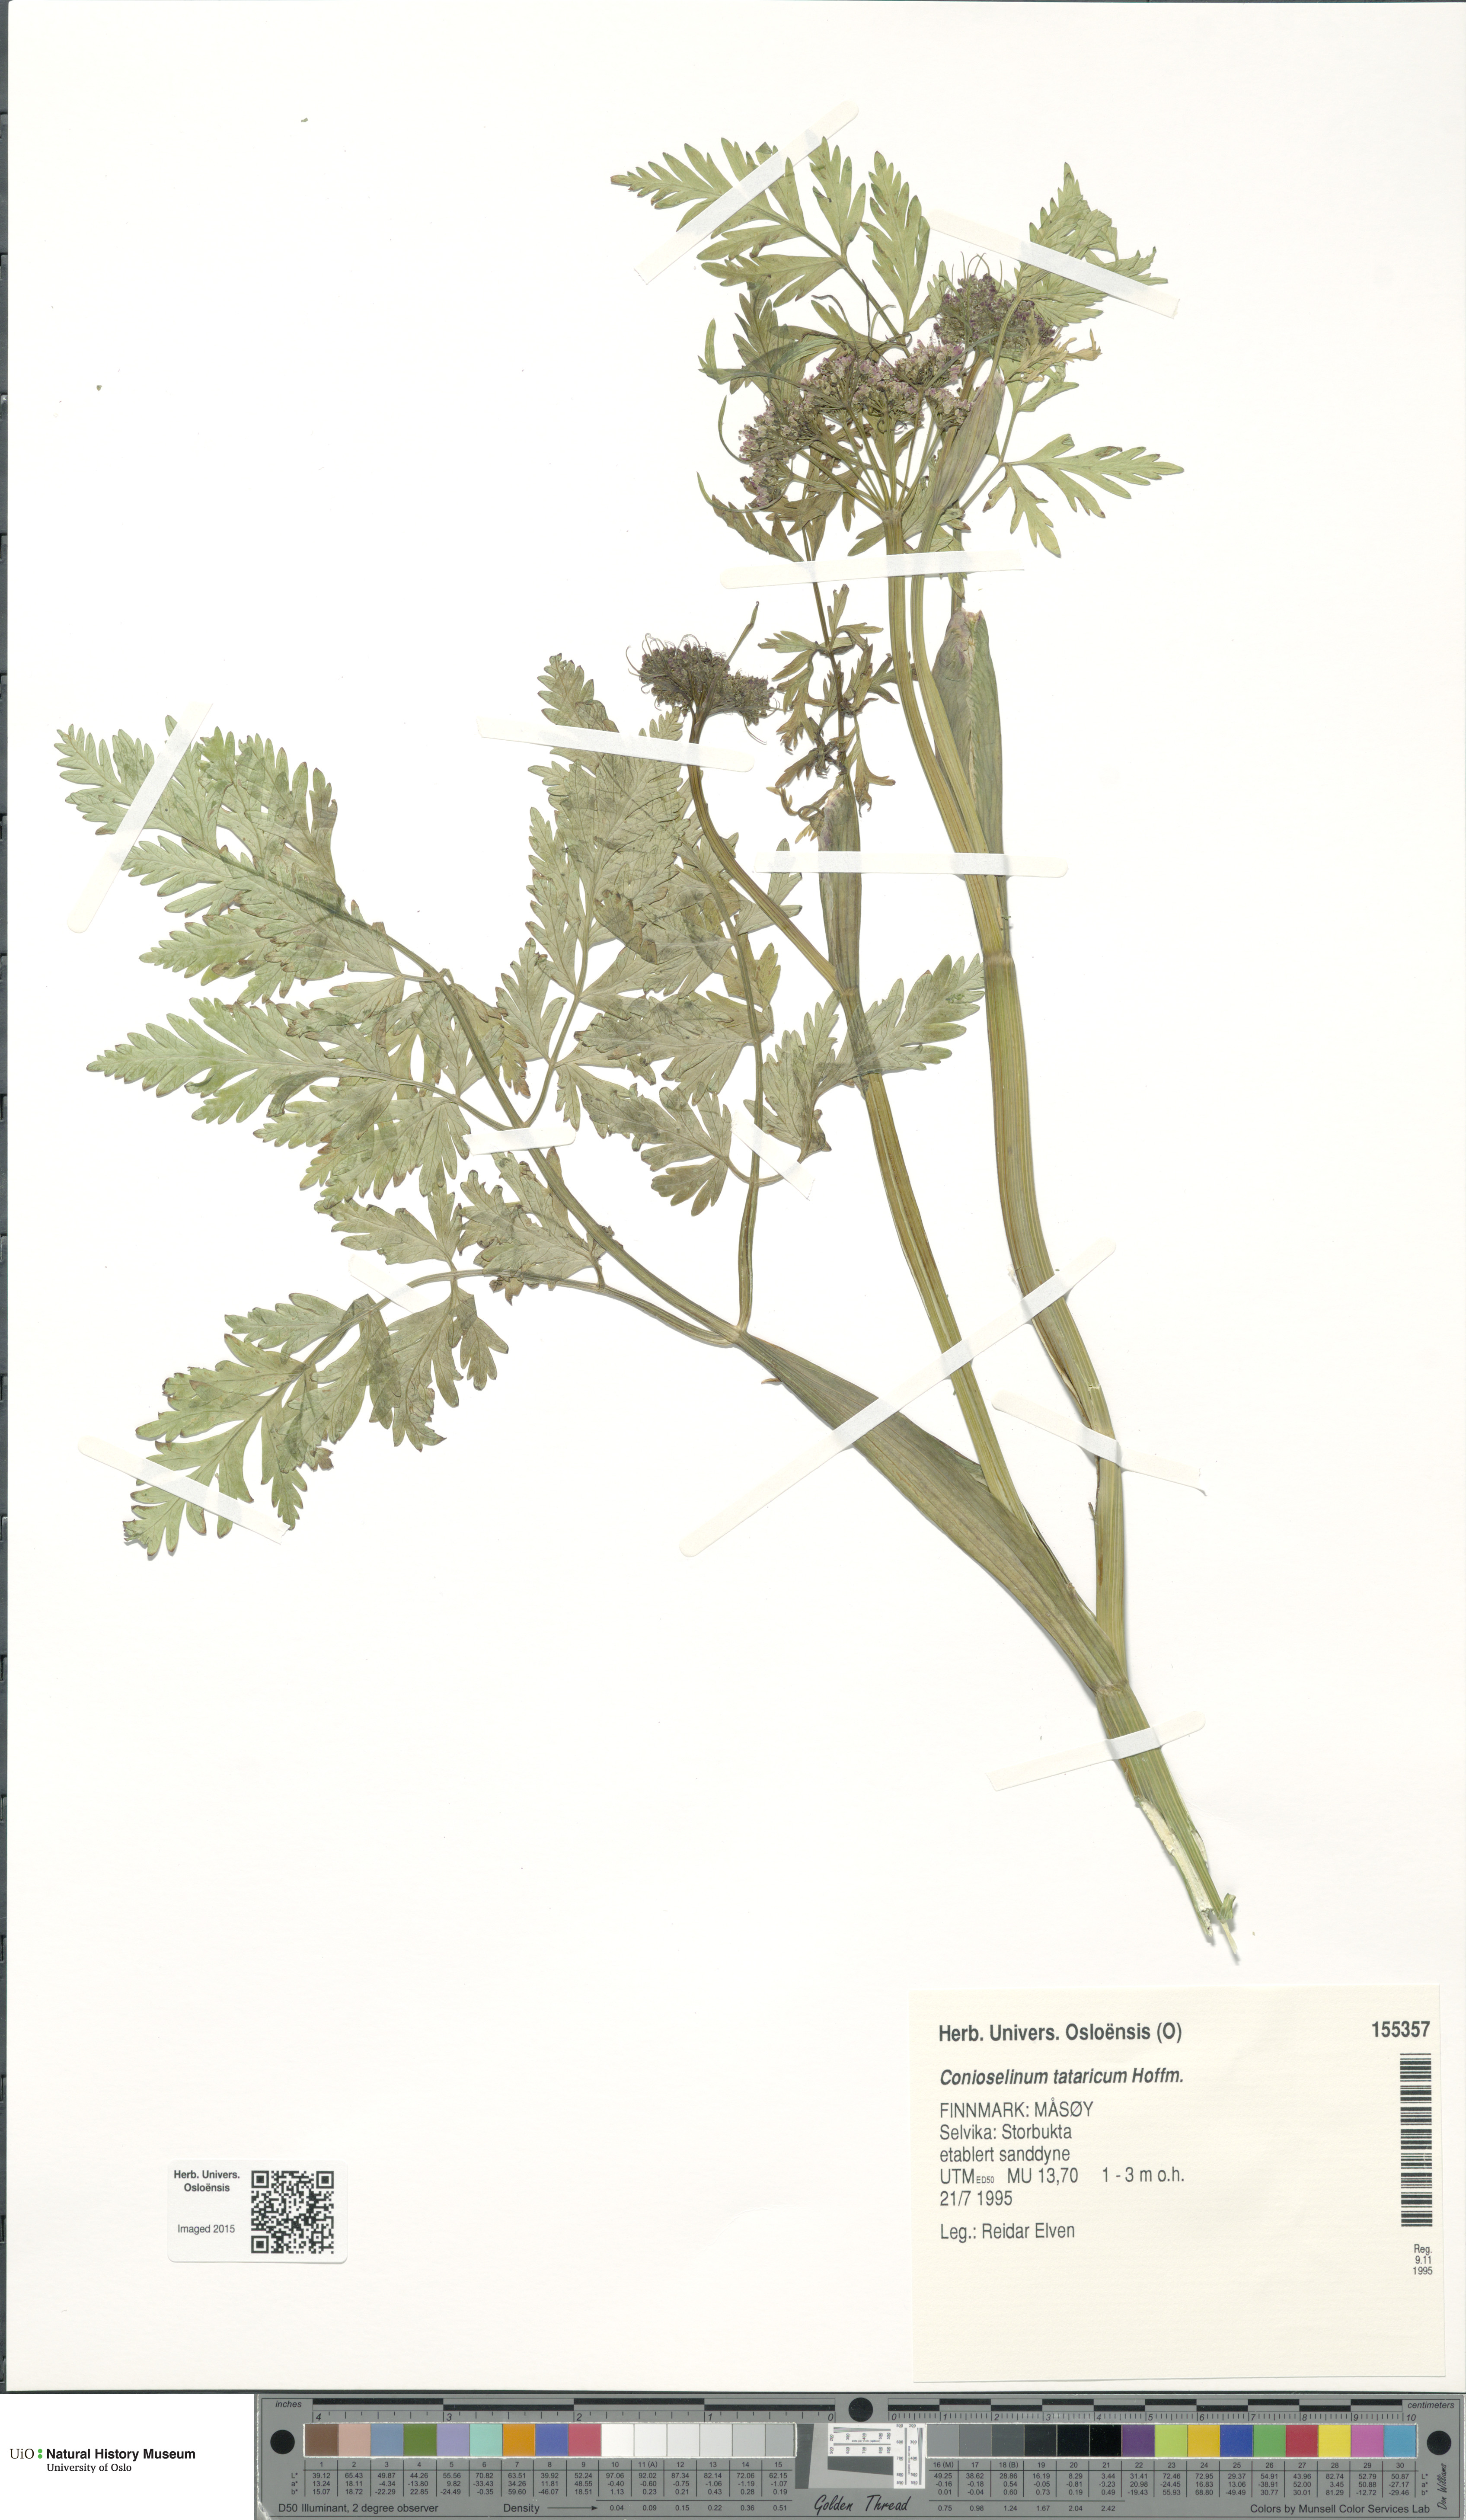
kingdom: Plantae
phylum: Tracheophyta
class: Magnoliopsida
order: Apiales
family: Apiaceae
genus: Seseli
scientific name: Seseli condensatum
